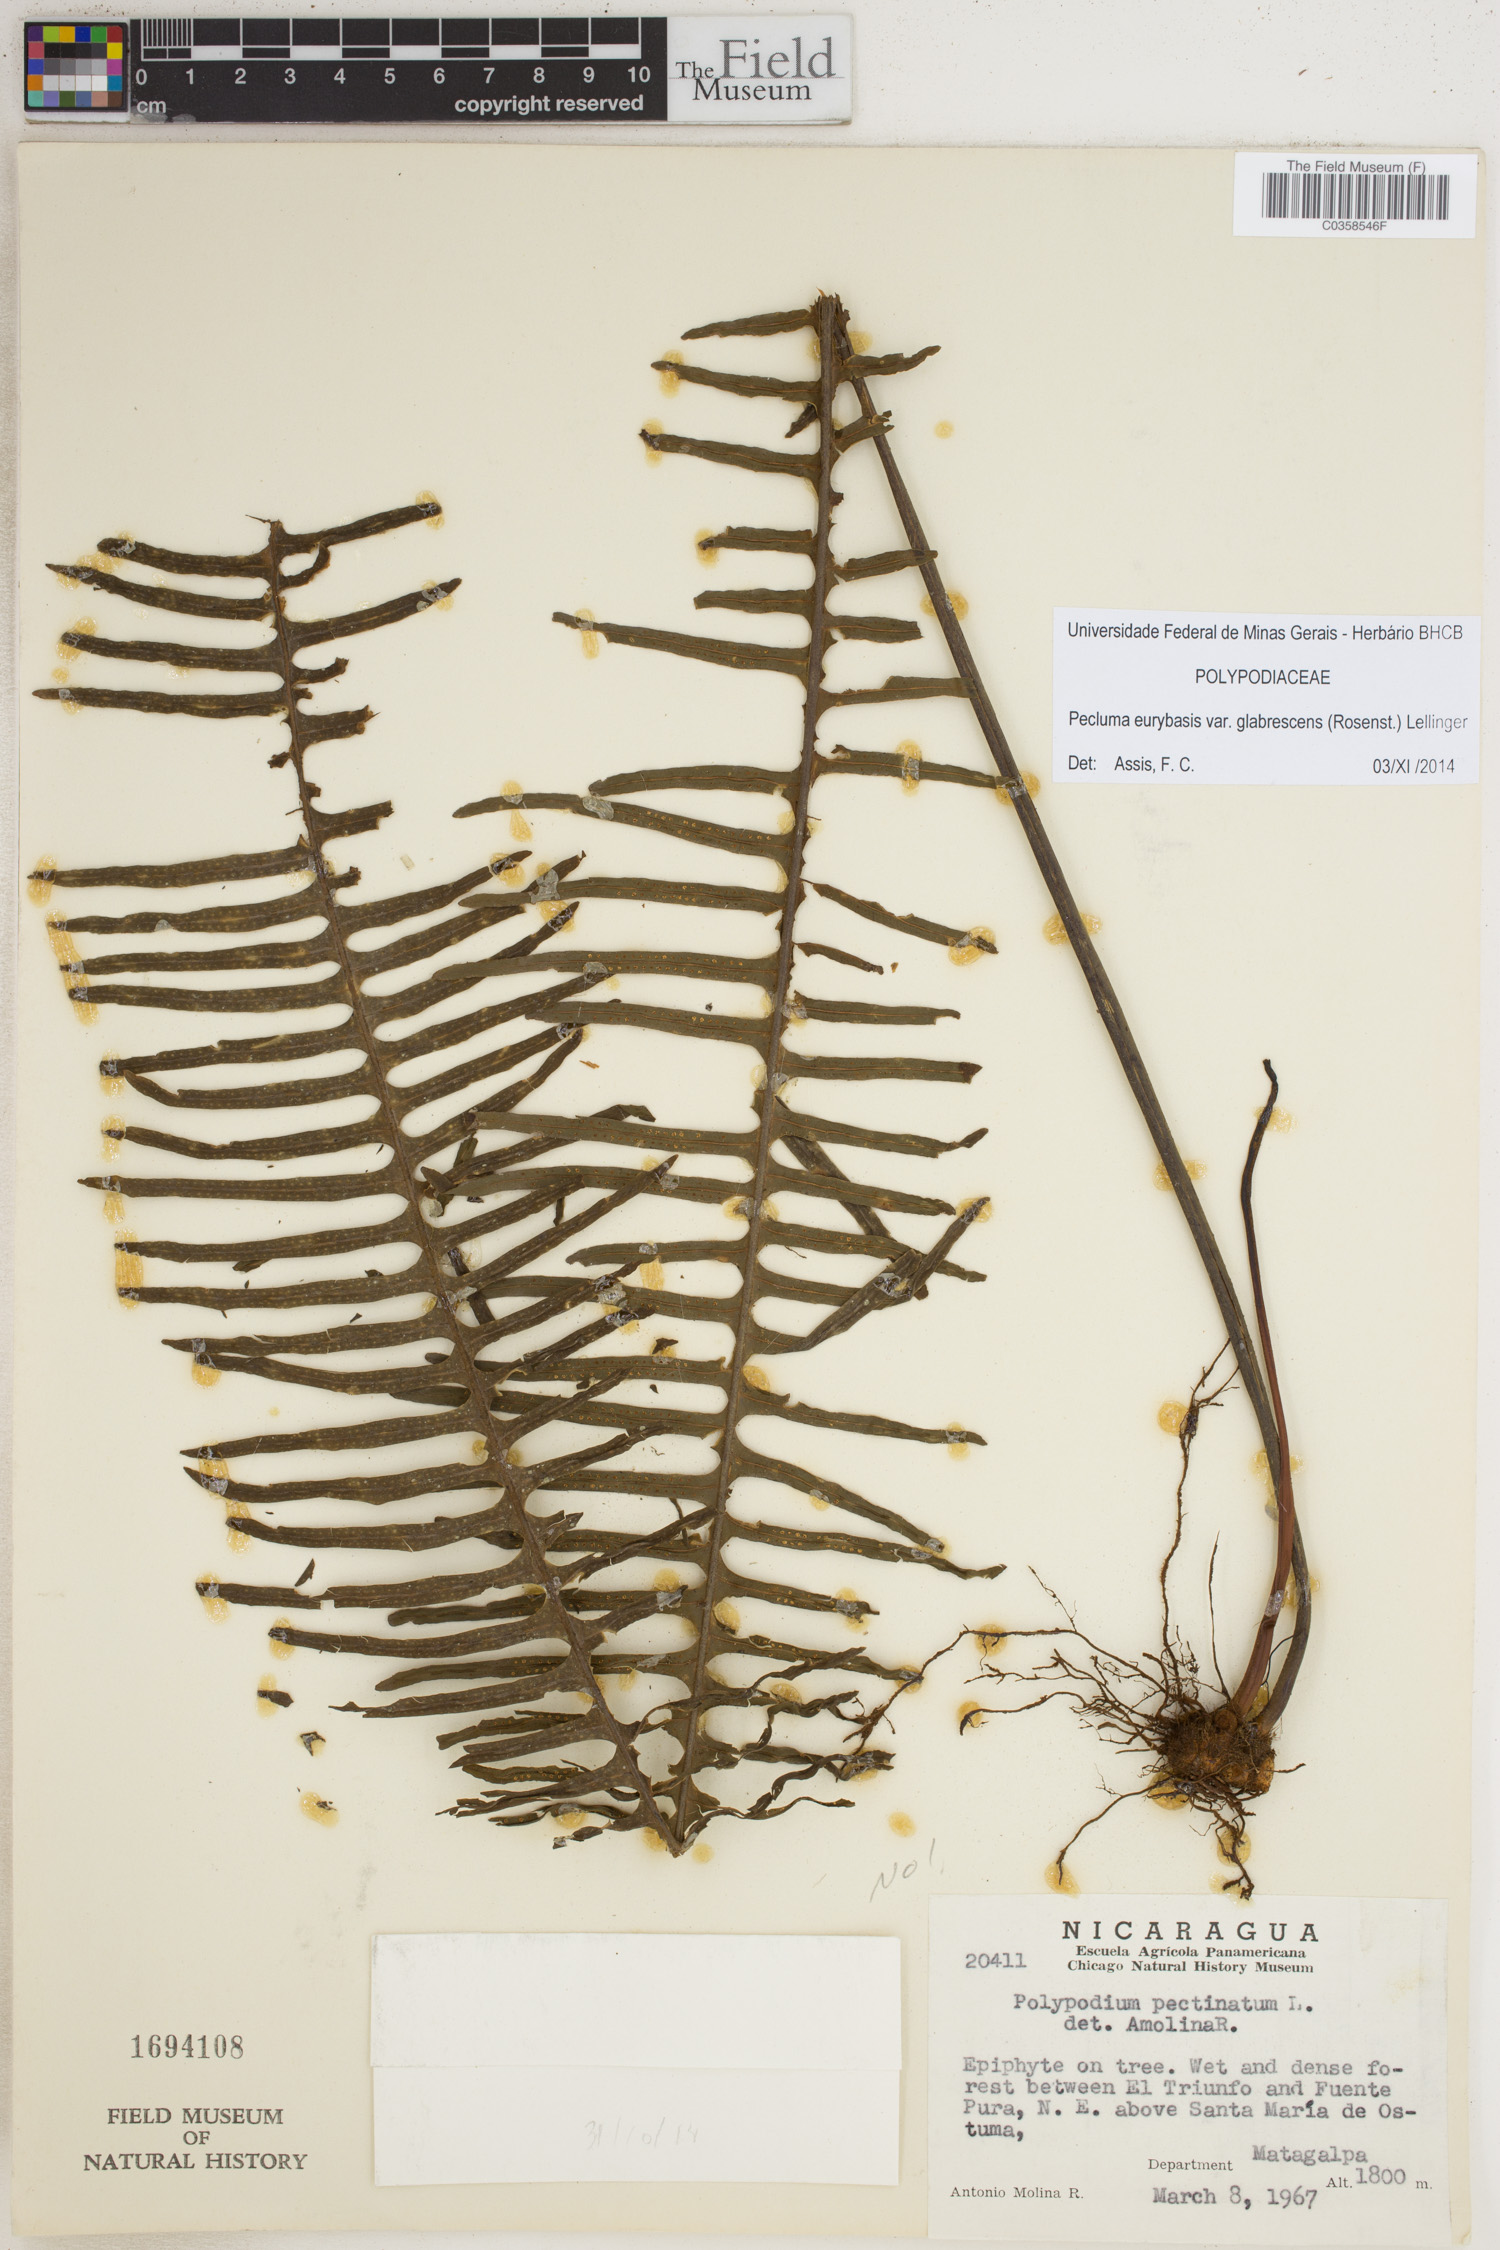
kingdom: Plantae
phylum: Tracheophyta
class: Polypodiopsida
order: Polypodiales
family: Polypodiaceae
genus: Pecluma
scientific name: Pecluma eurybasis
